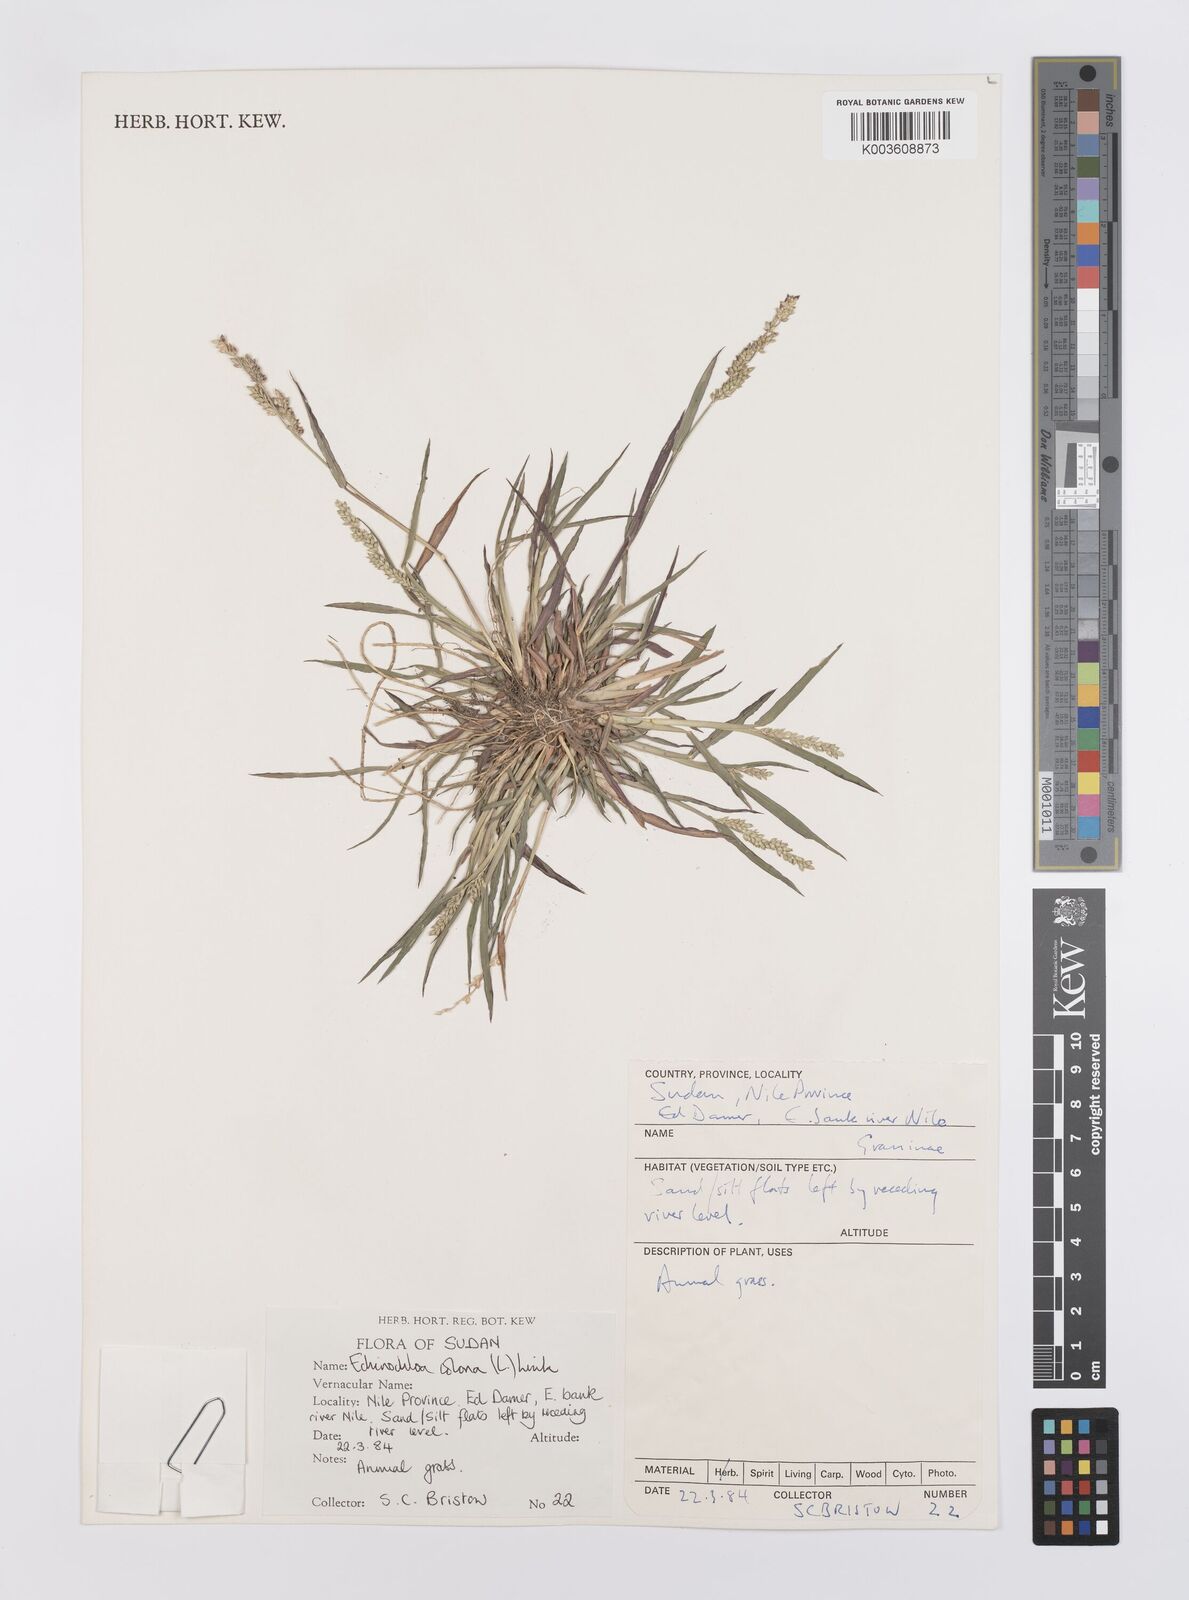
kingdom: Plantae
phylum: Tracheophyta
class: Liliopsida
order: Poales
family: Poaceae
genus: Echinochloa
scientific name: Echinochloa colonum
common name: Jungle rice
